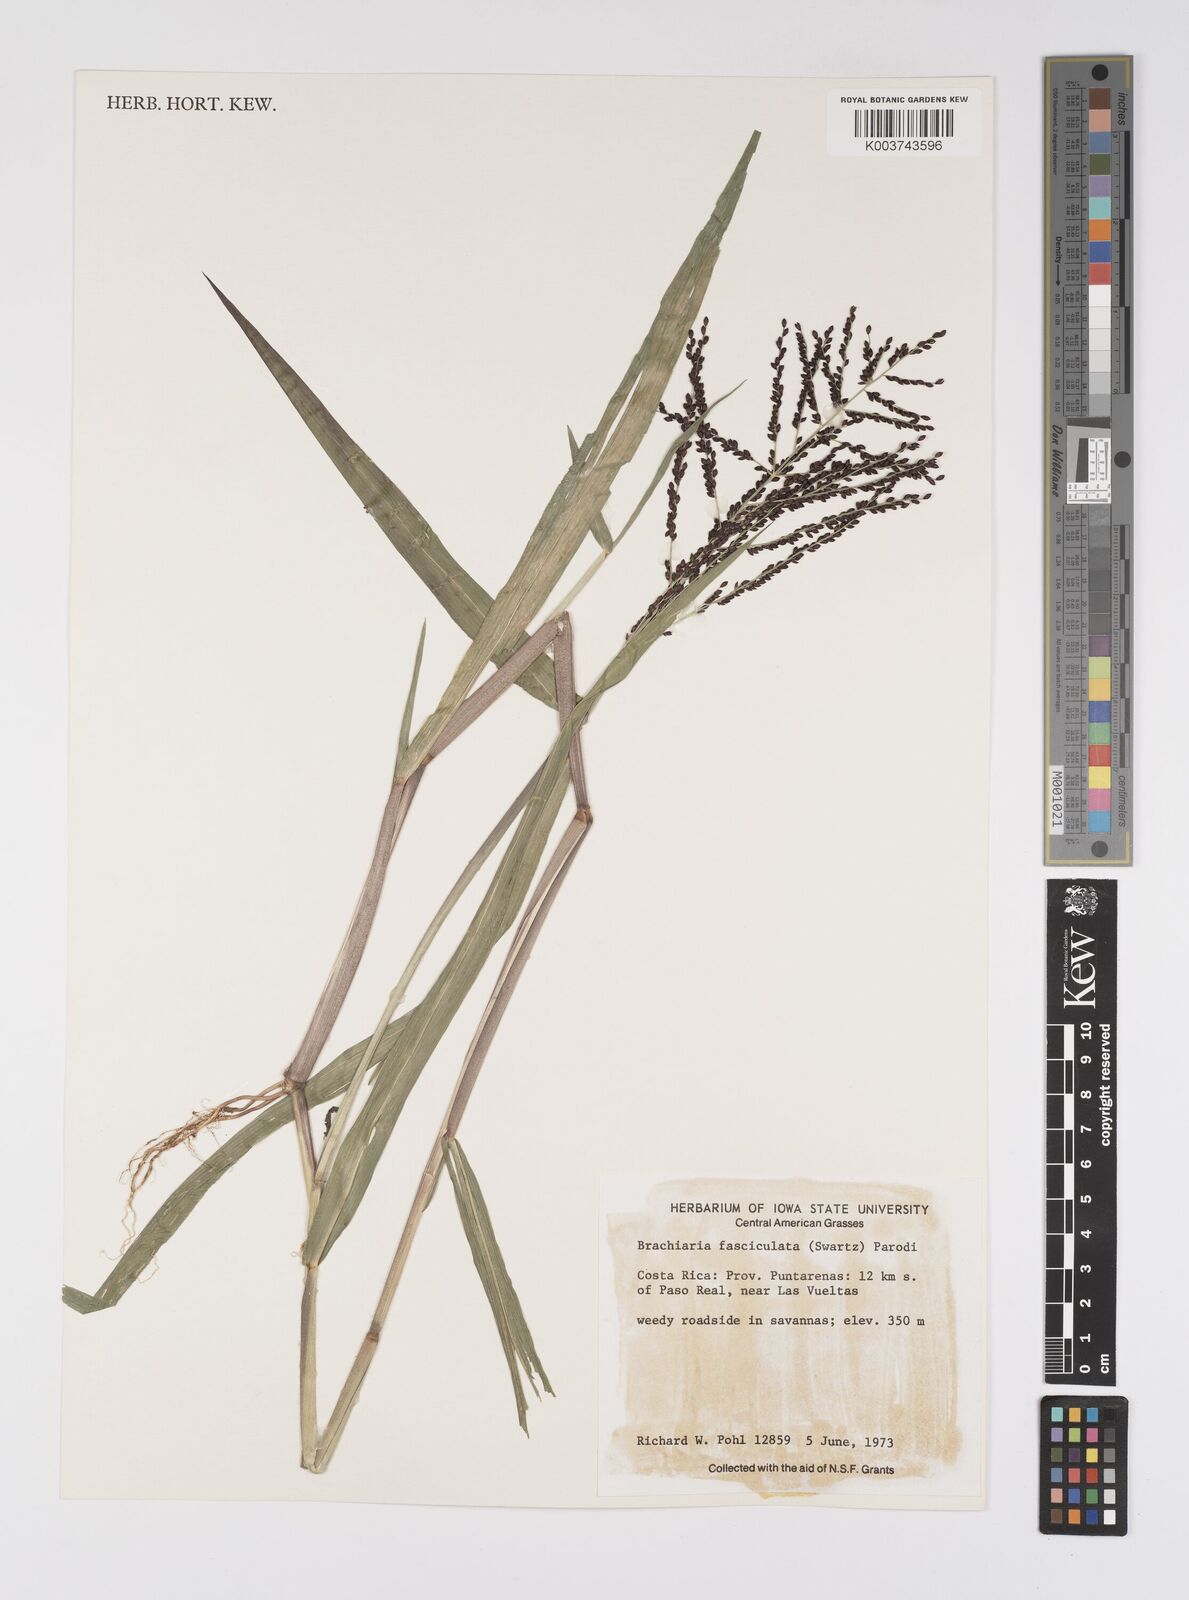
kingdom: Plantae
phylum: Tracheophyta
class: Liliopsida
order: Poales
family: Poaceae
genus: Urochloa
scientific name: Urochloa fusca
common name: Browntop signal grass
